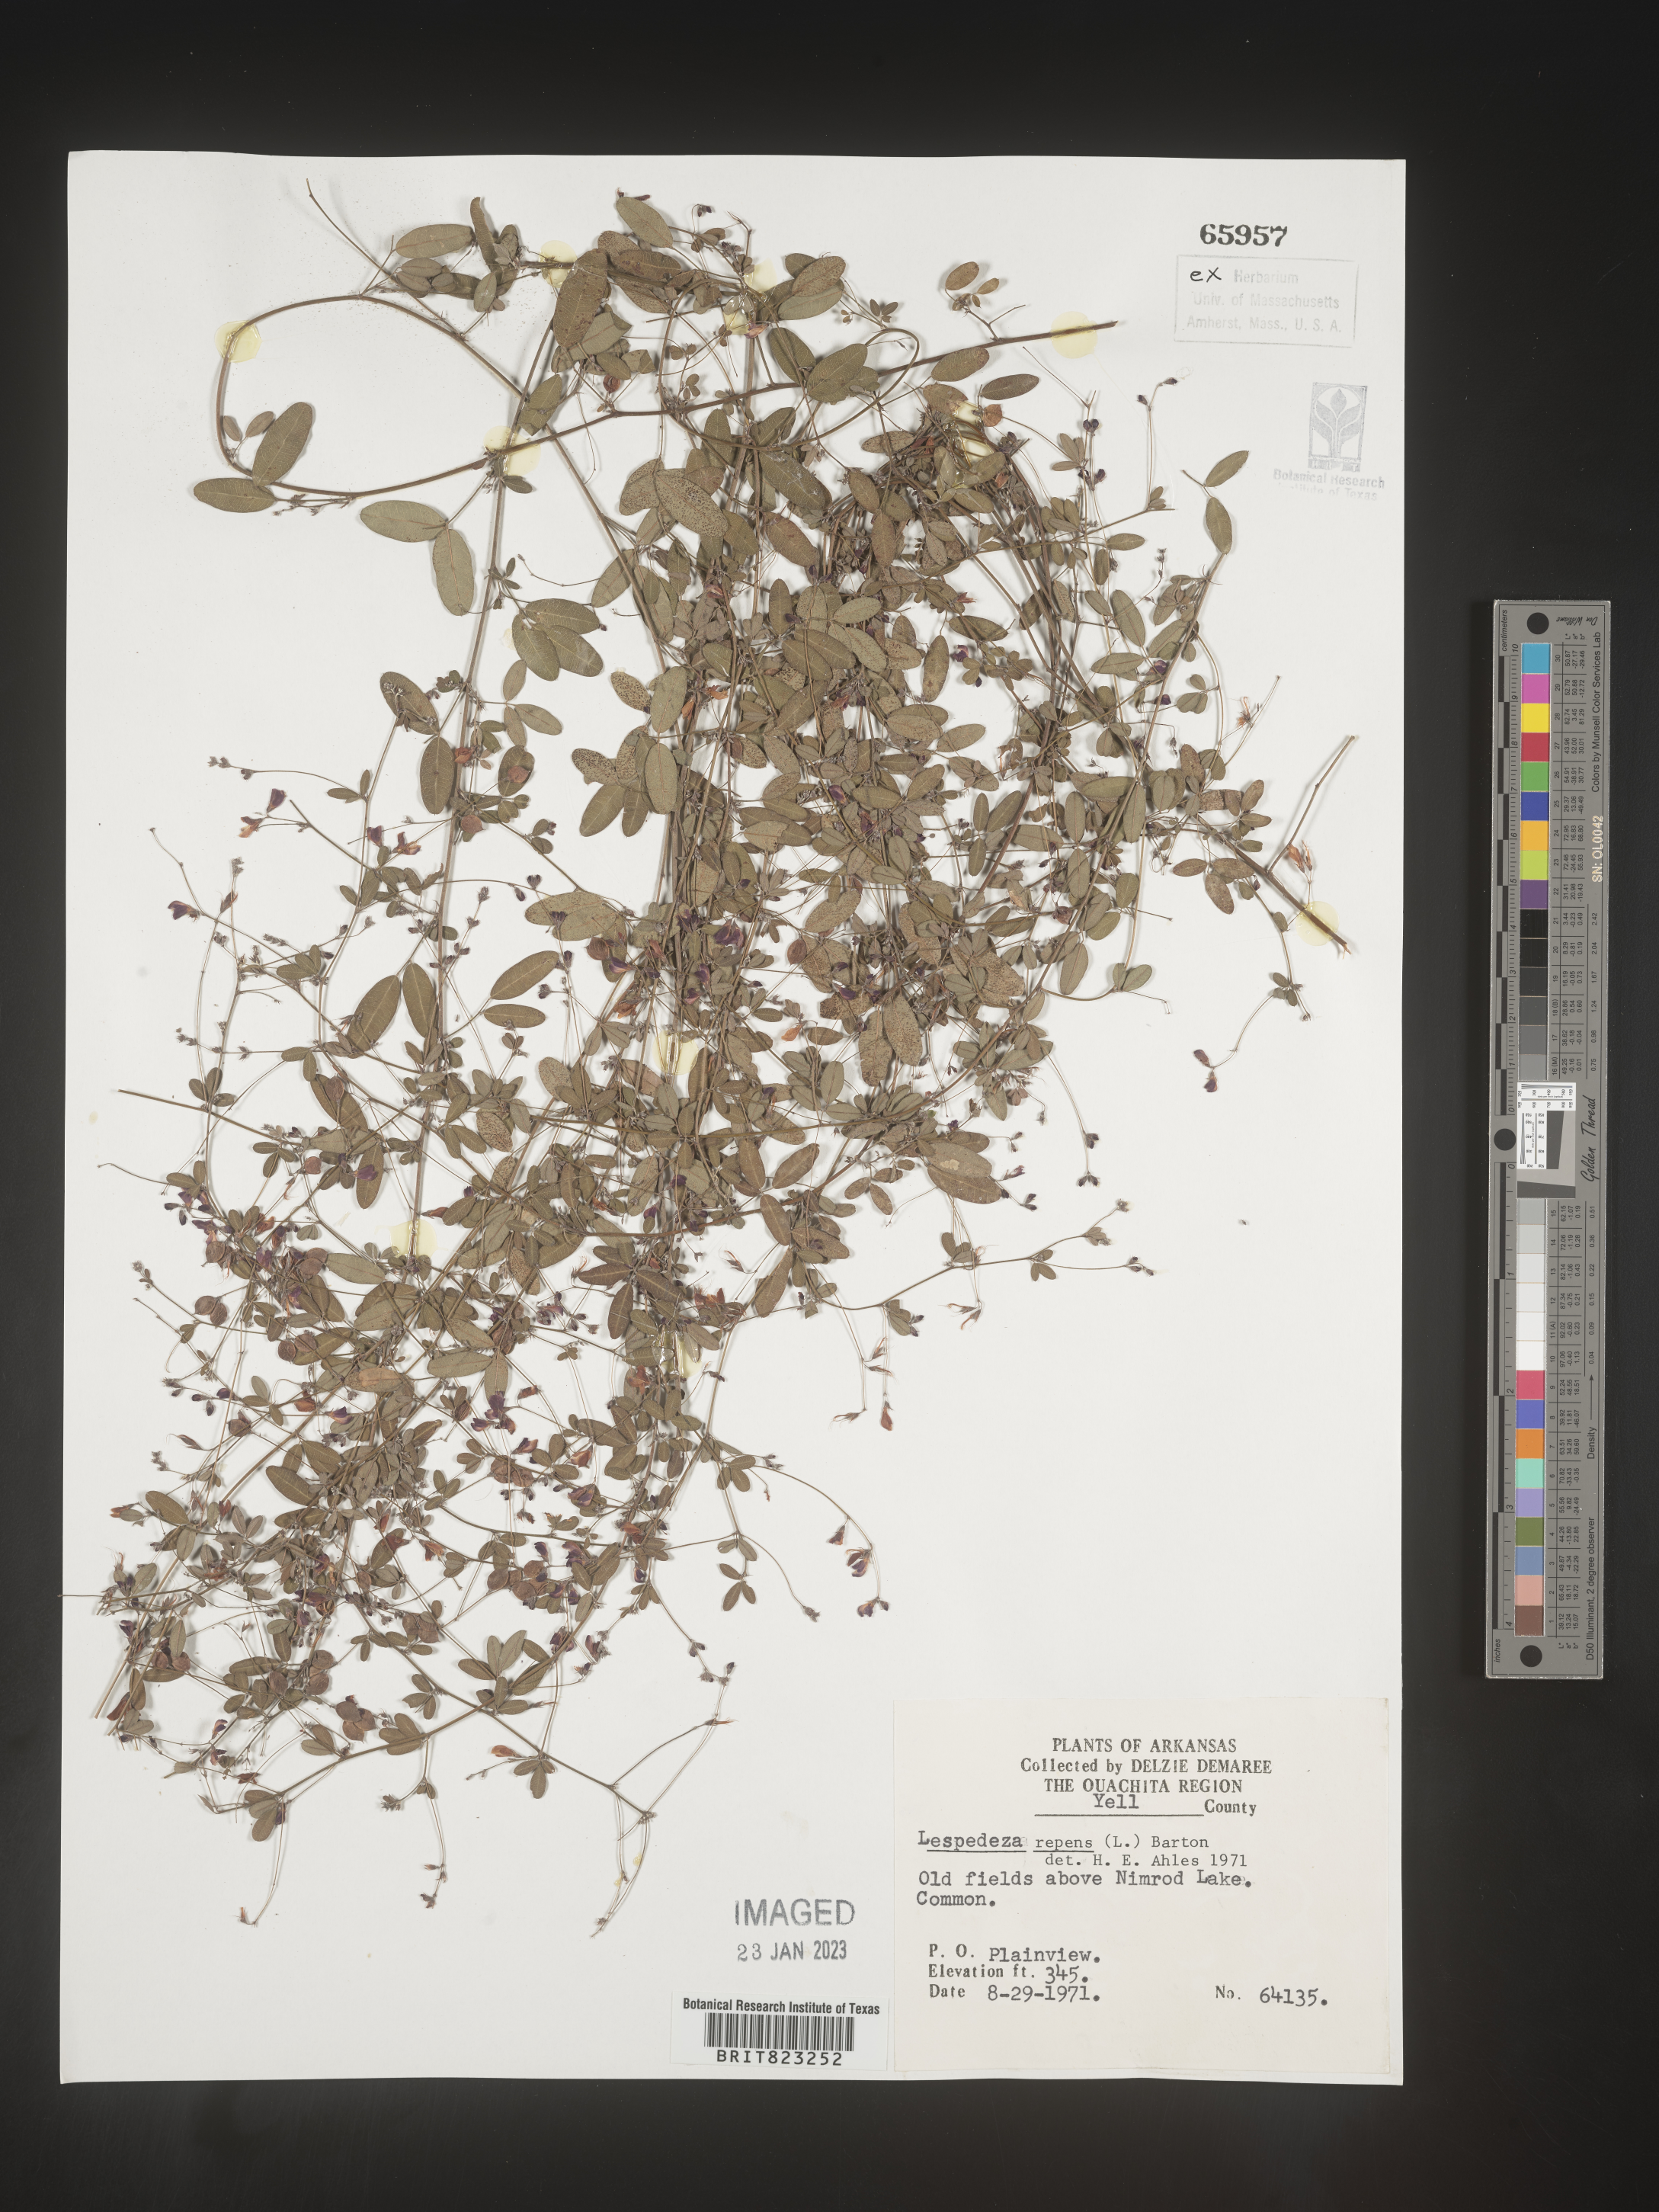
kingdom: Plantae
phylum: Tracheophyta
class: Magnoliopsida
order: Fabales
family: Fabaceae
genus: Lespedeza
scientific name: Lespedeza repens
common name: Creeping bush-clover
